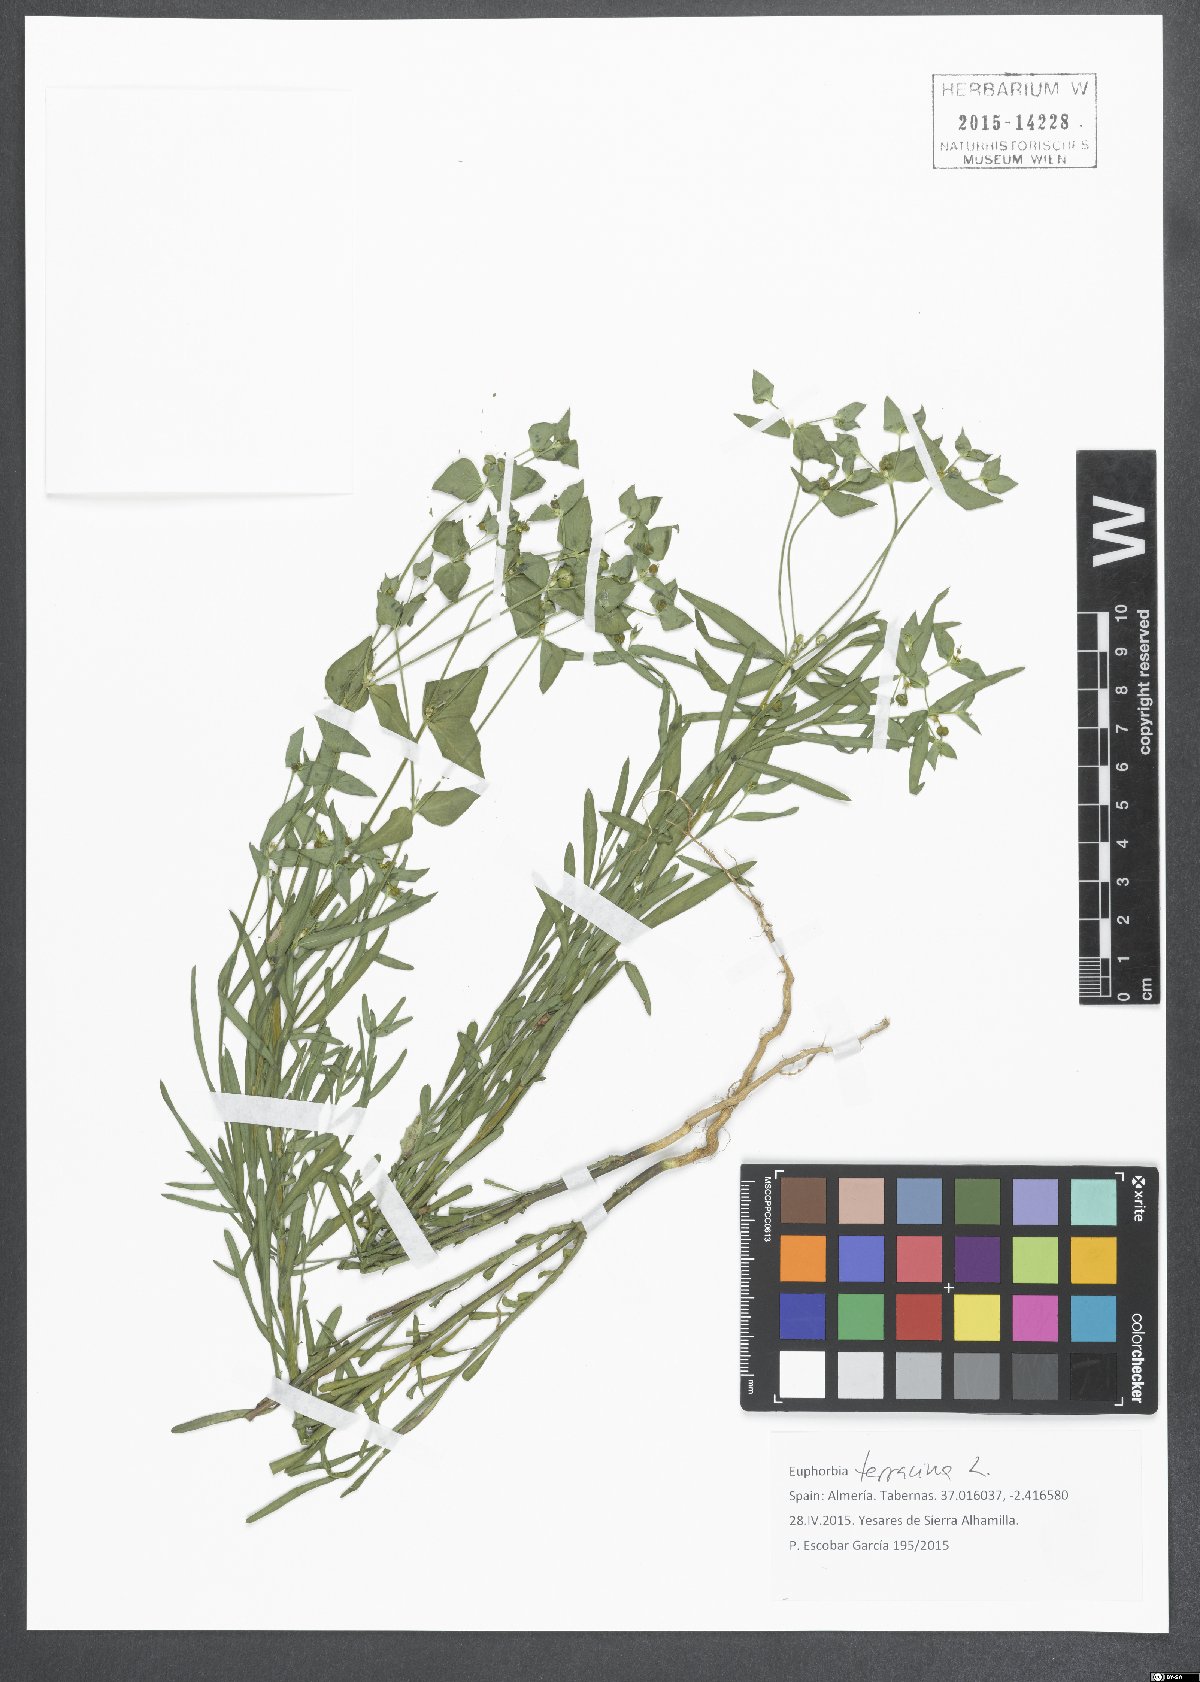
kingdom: Plantae
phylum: Tracheophyta
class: Magnoliopsida
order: Malpighiales
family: Euphorbiaceae
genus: Euphorbia
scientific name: Euphorbia terracina
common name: Geraldton carnation weed
